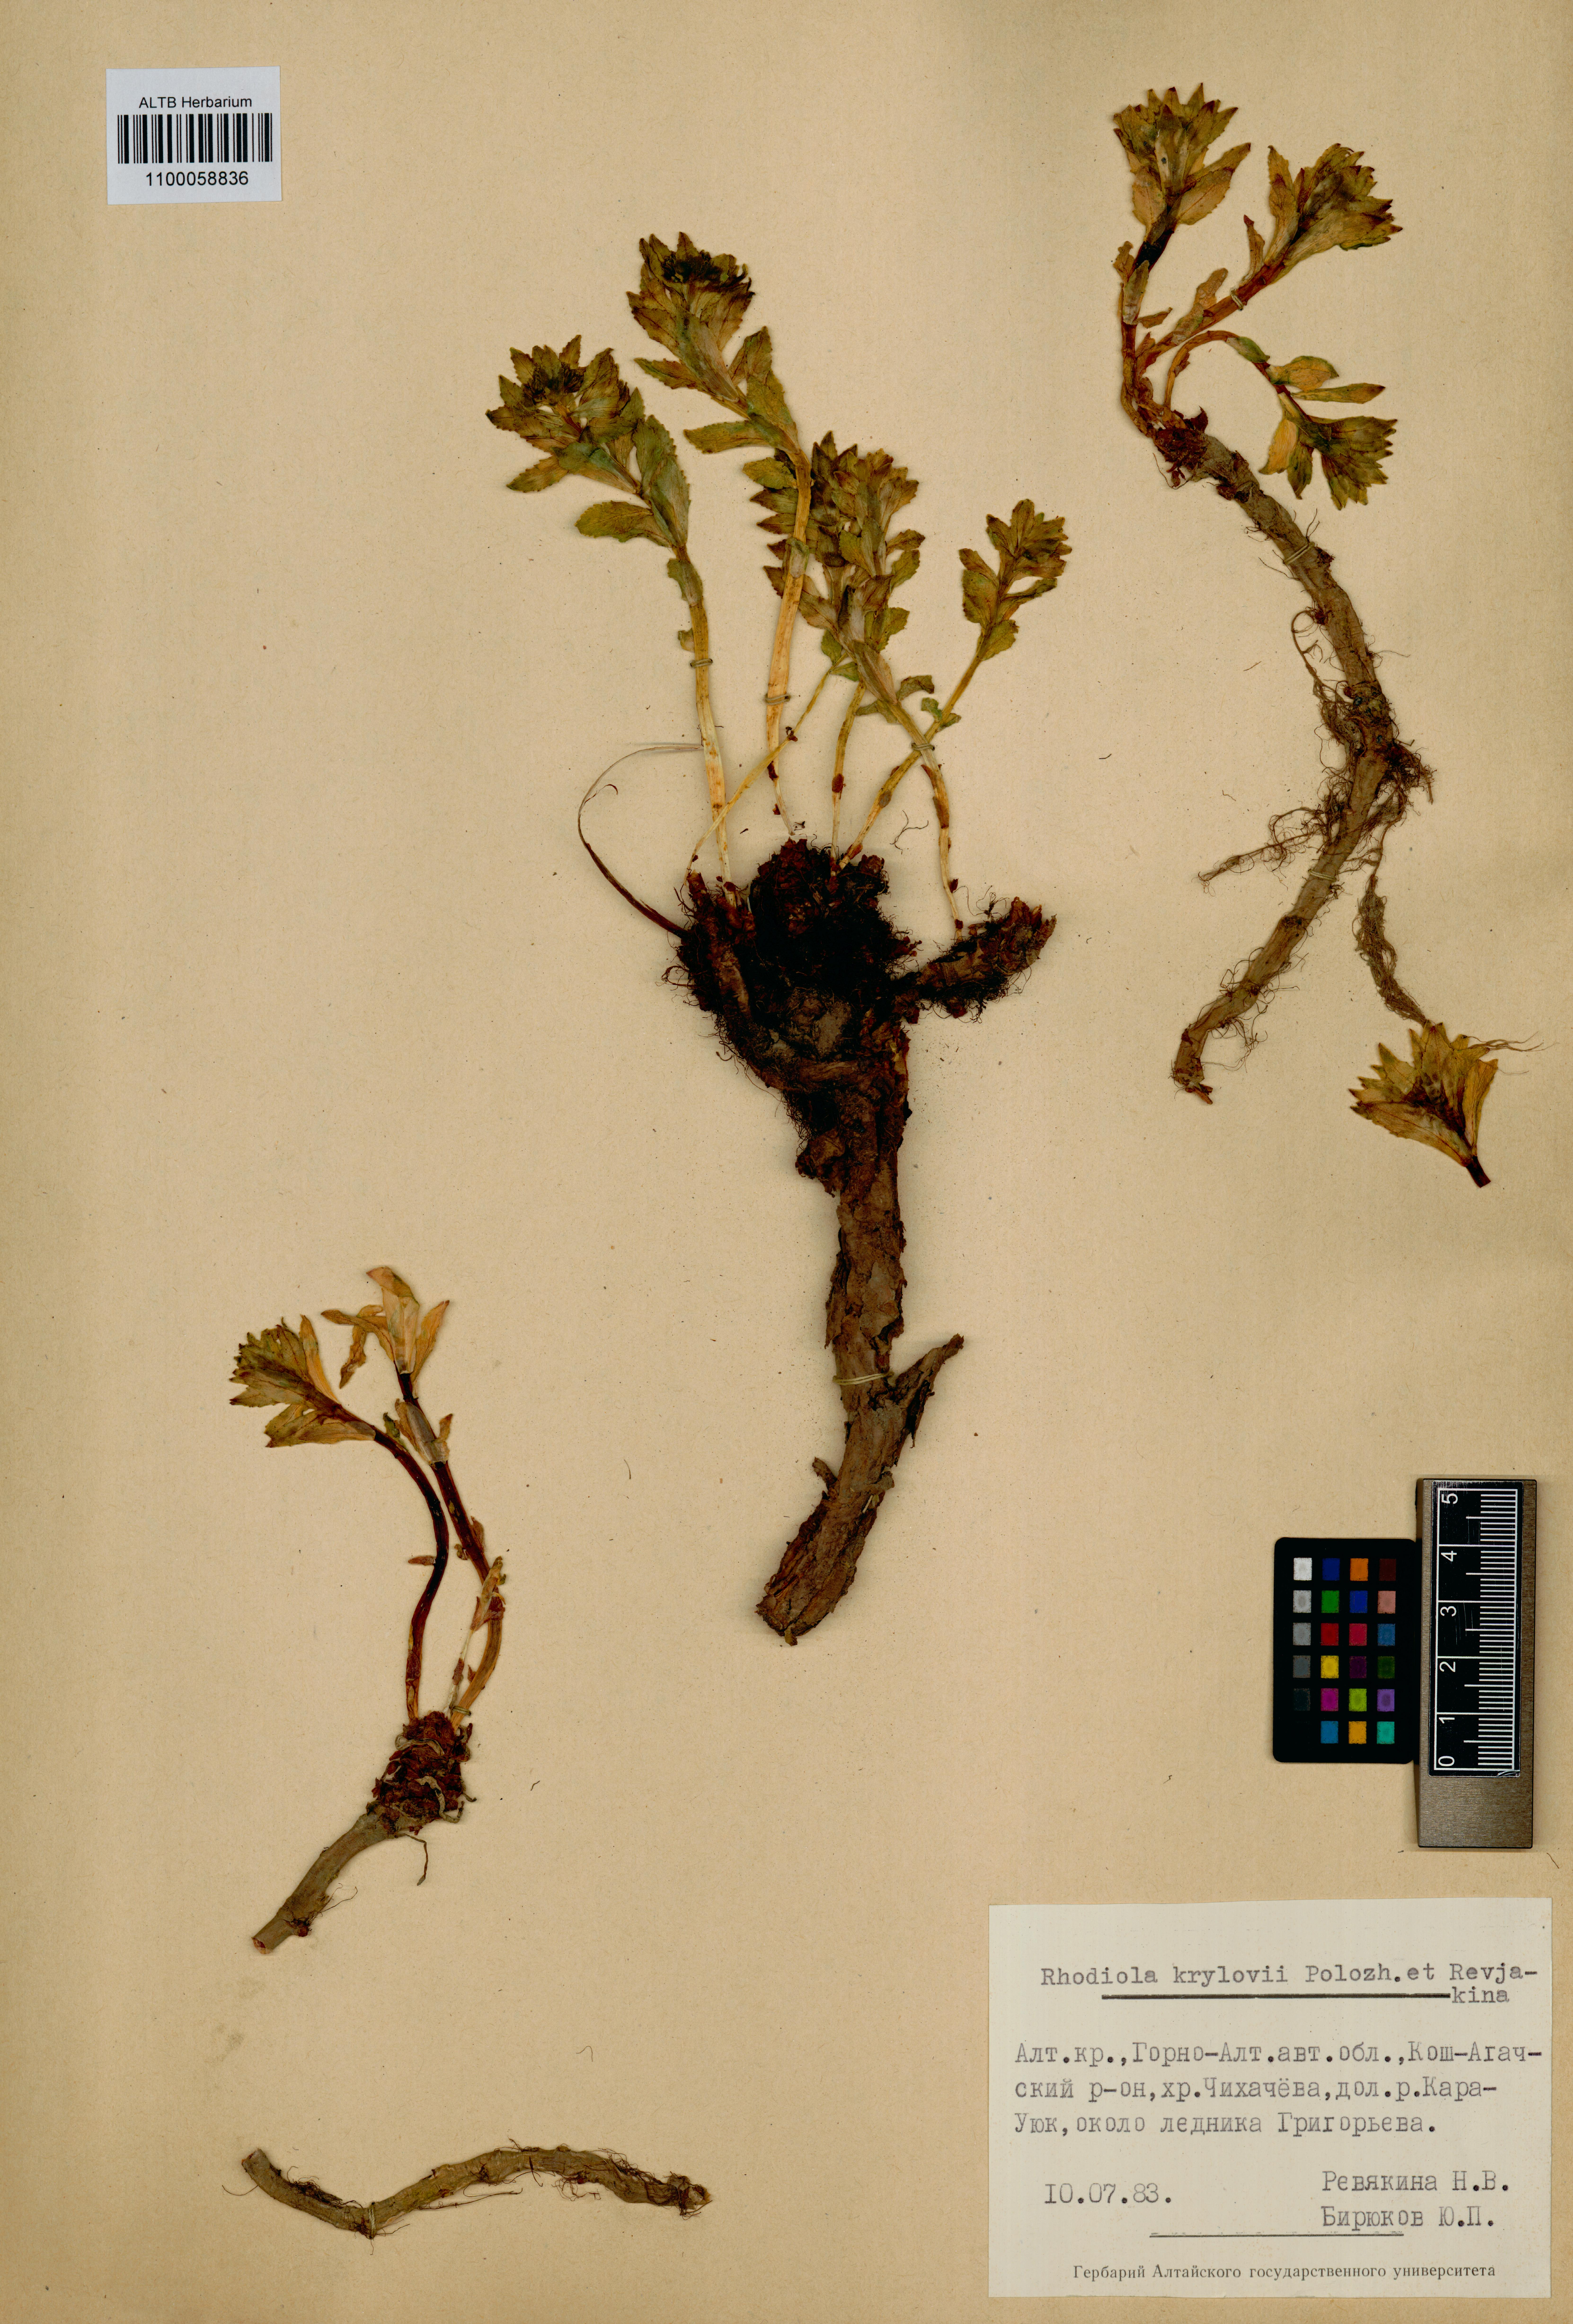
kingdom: Plantae
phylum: Tracheophyta
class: Magnoliopsida
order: Saxifragales
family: Crassulaceae
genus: Rhodiola
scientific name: Rhodiola stephani
